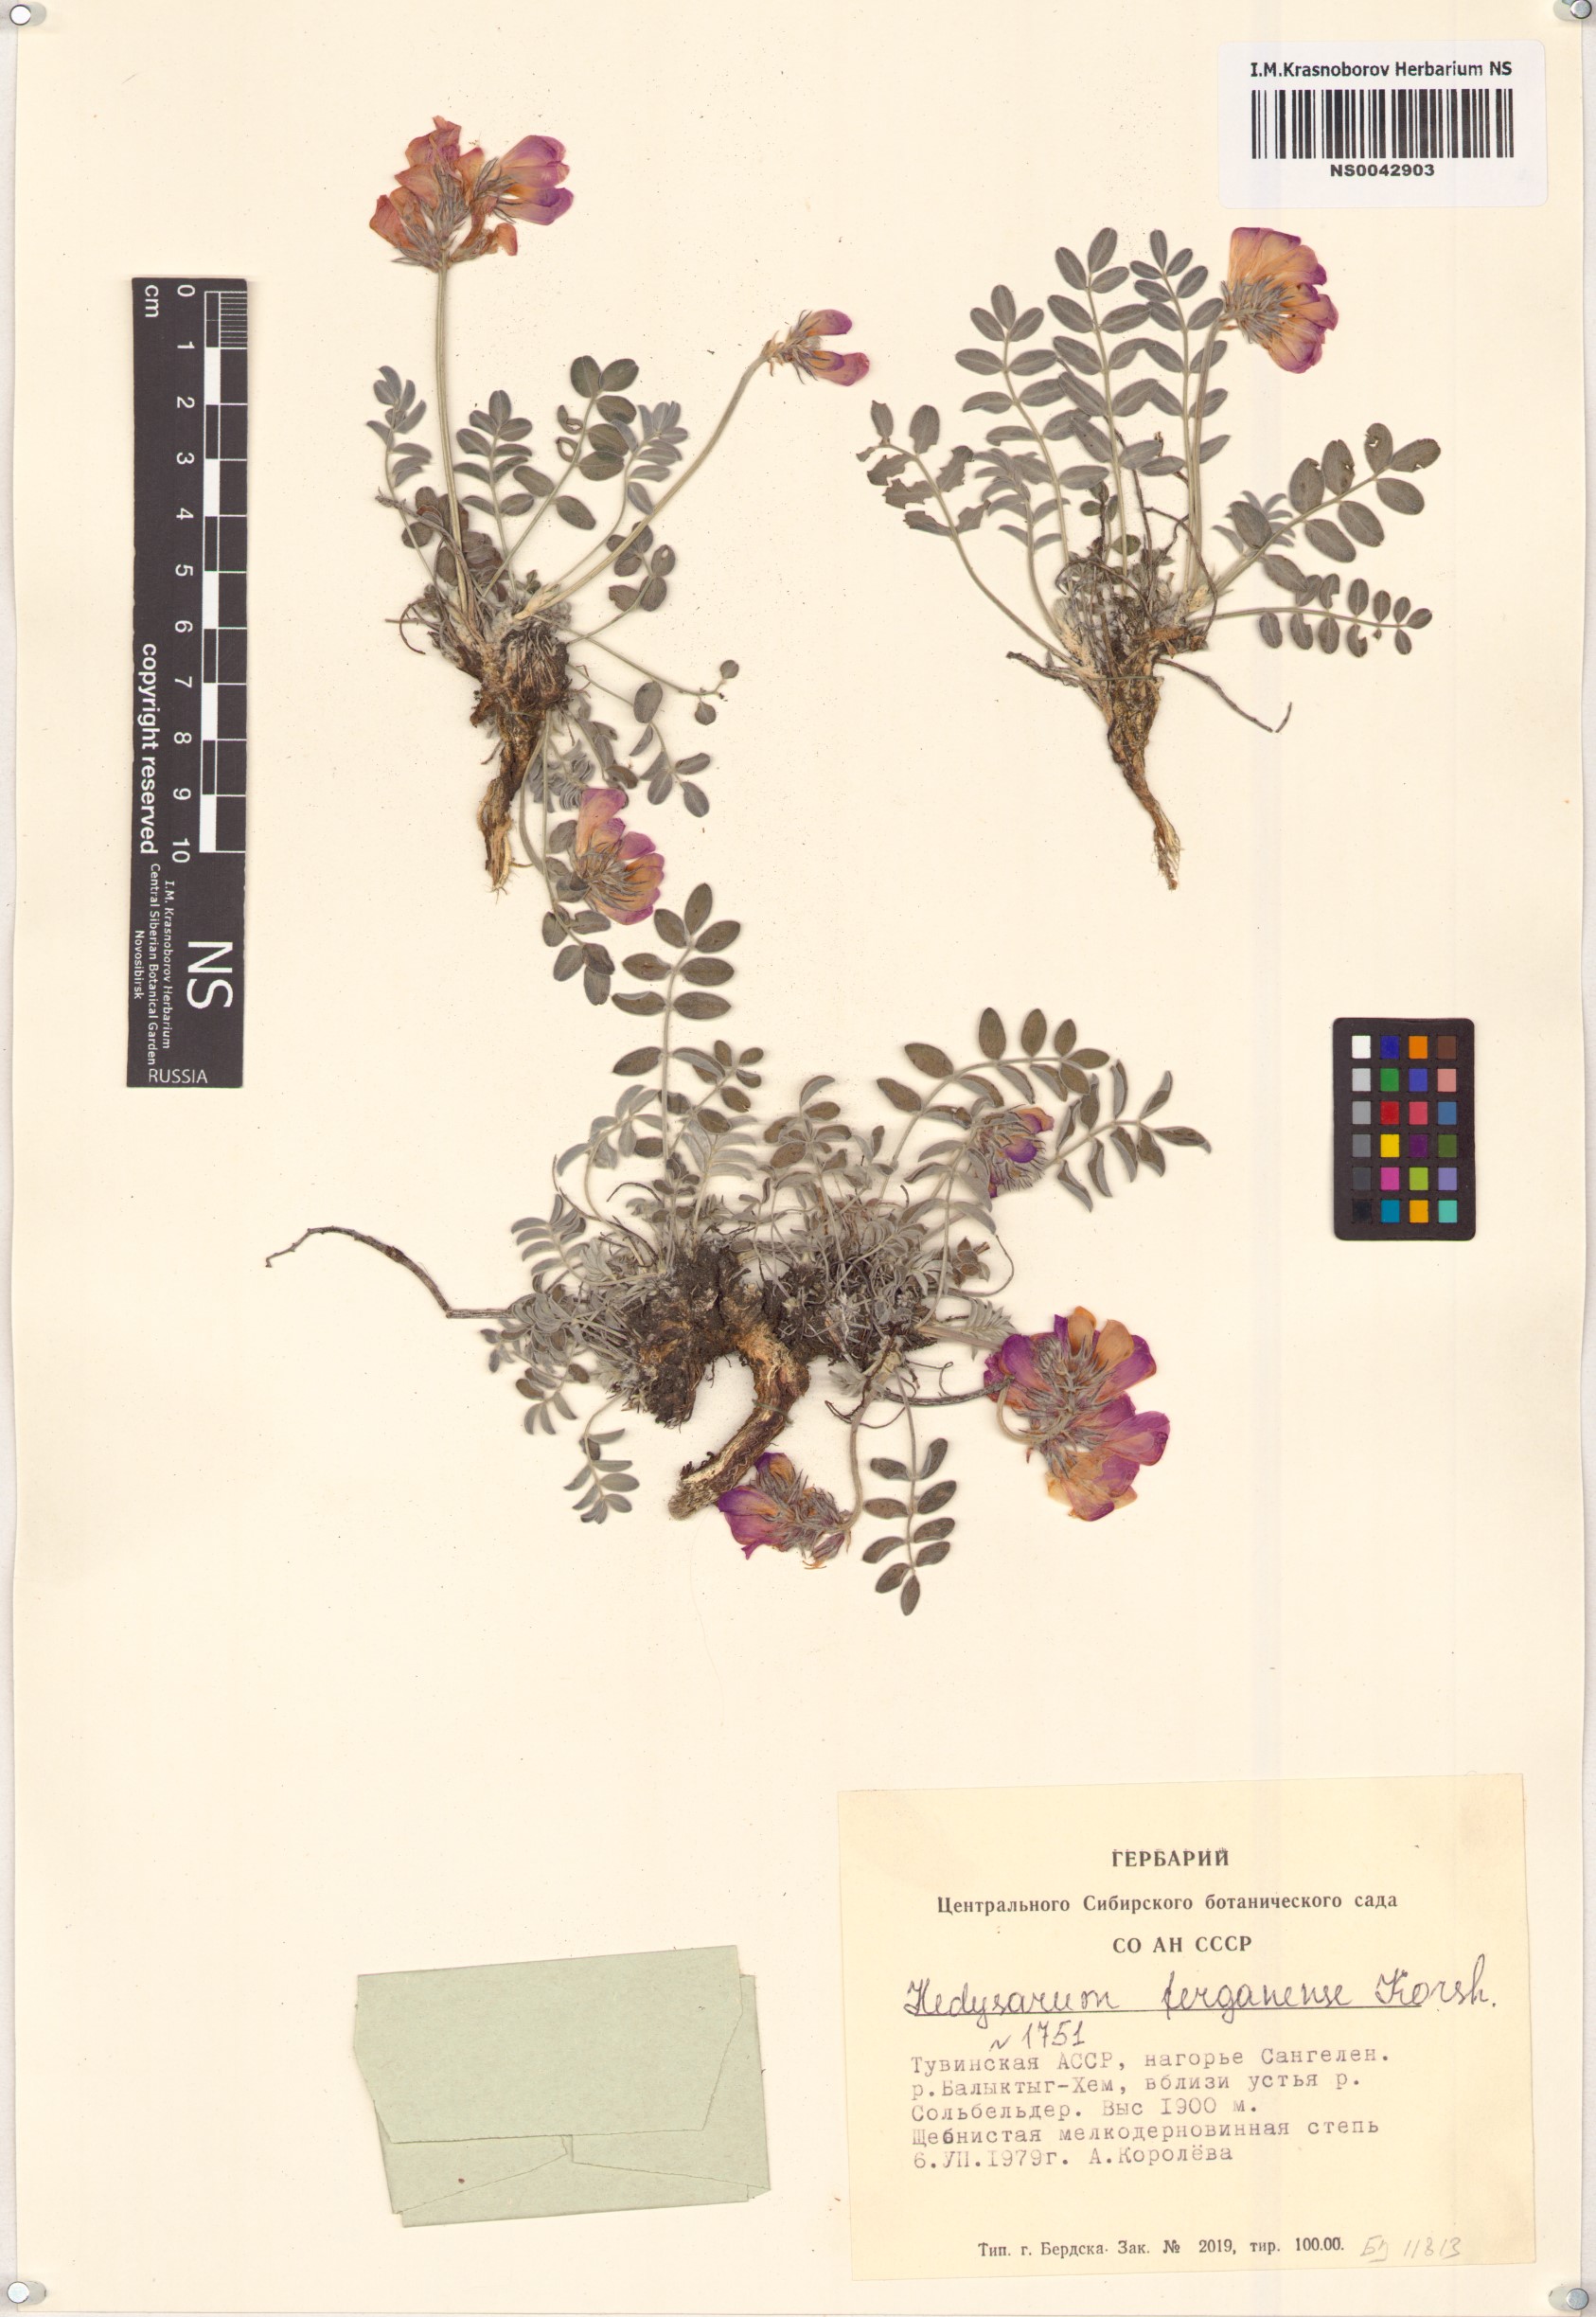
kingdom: Plantae
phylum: Tracheophyta
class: Magnoliopsida
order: Fabales
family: Fabaceae
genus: Hedysarum
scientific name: Hedysarum ferganense
